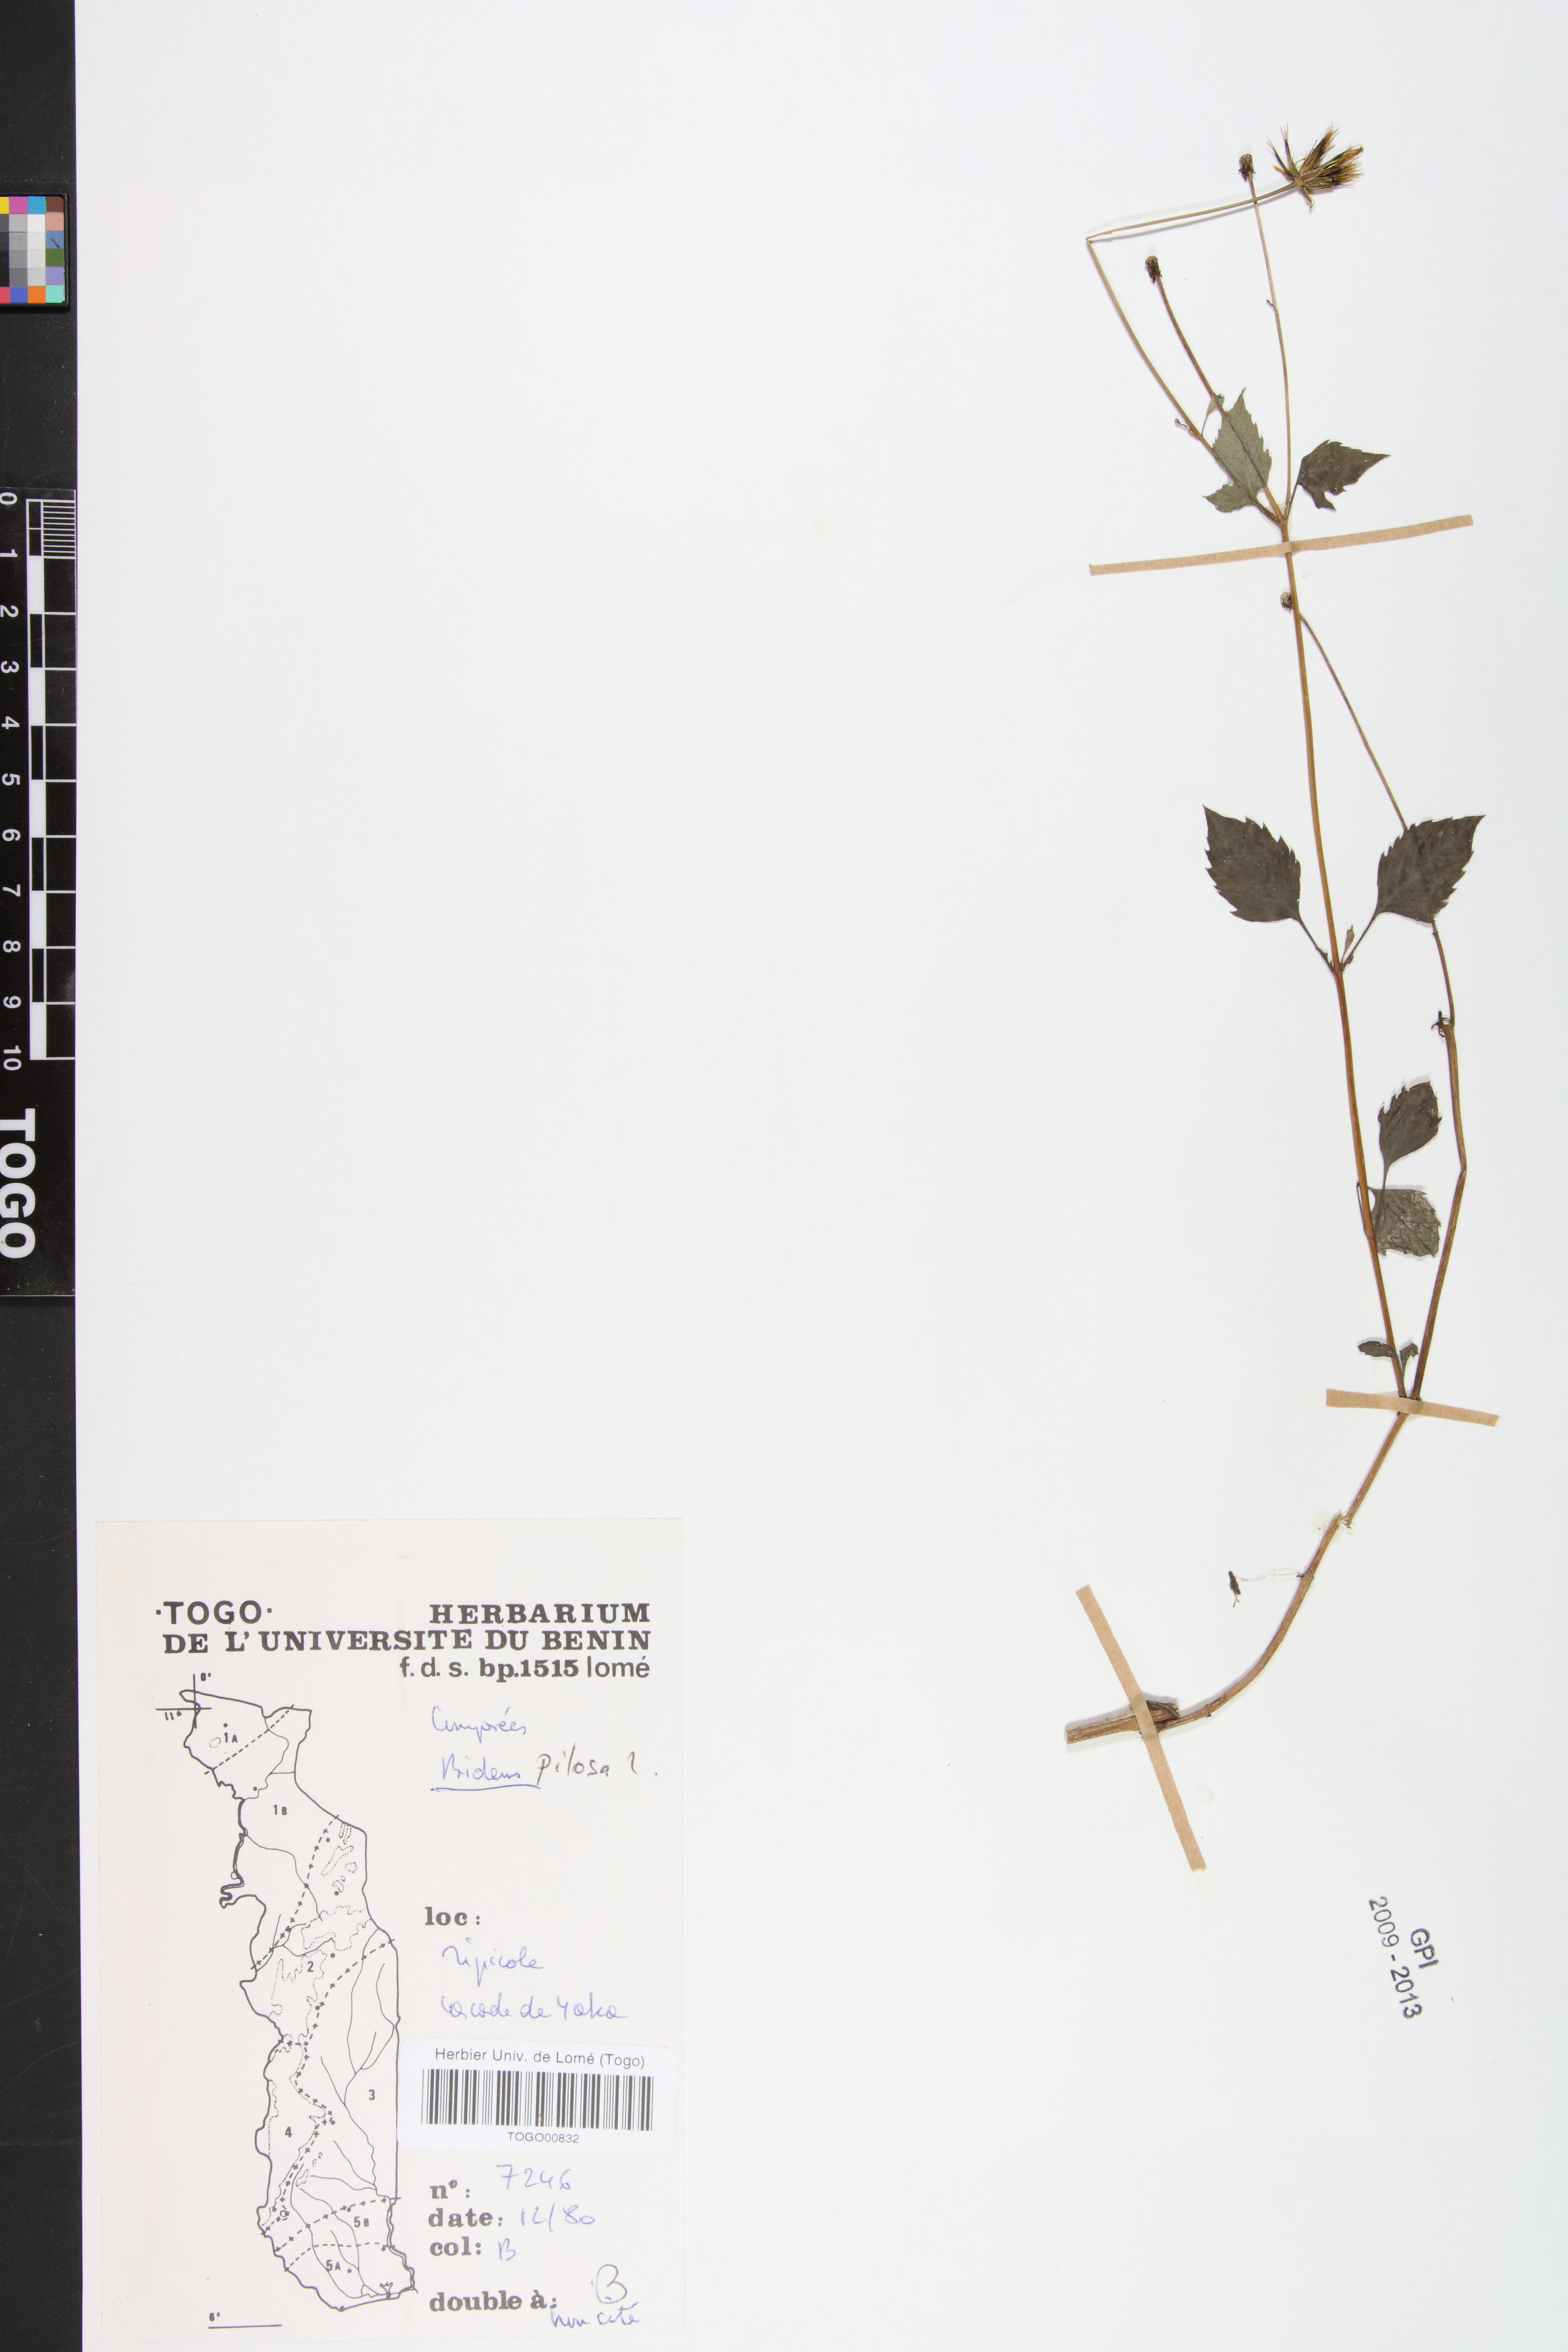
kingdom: Plantae
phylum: Tracheophyta
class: Magnoliopsida
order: Asterales
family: Asteraceae
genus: Bidens
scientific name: Bidens pilosa
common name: Black-jack
